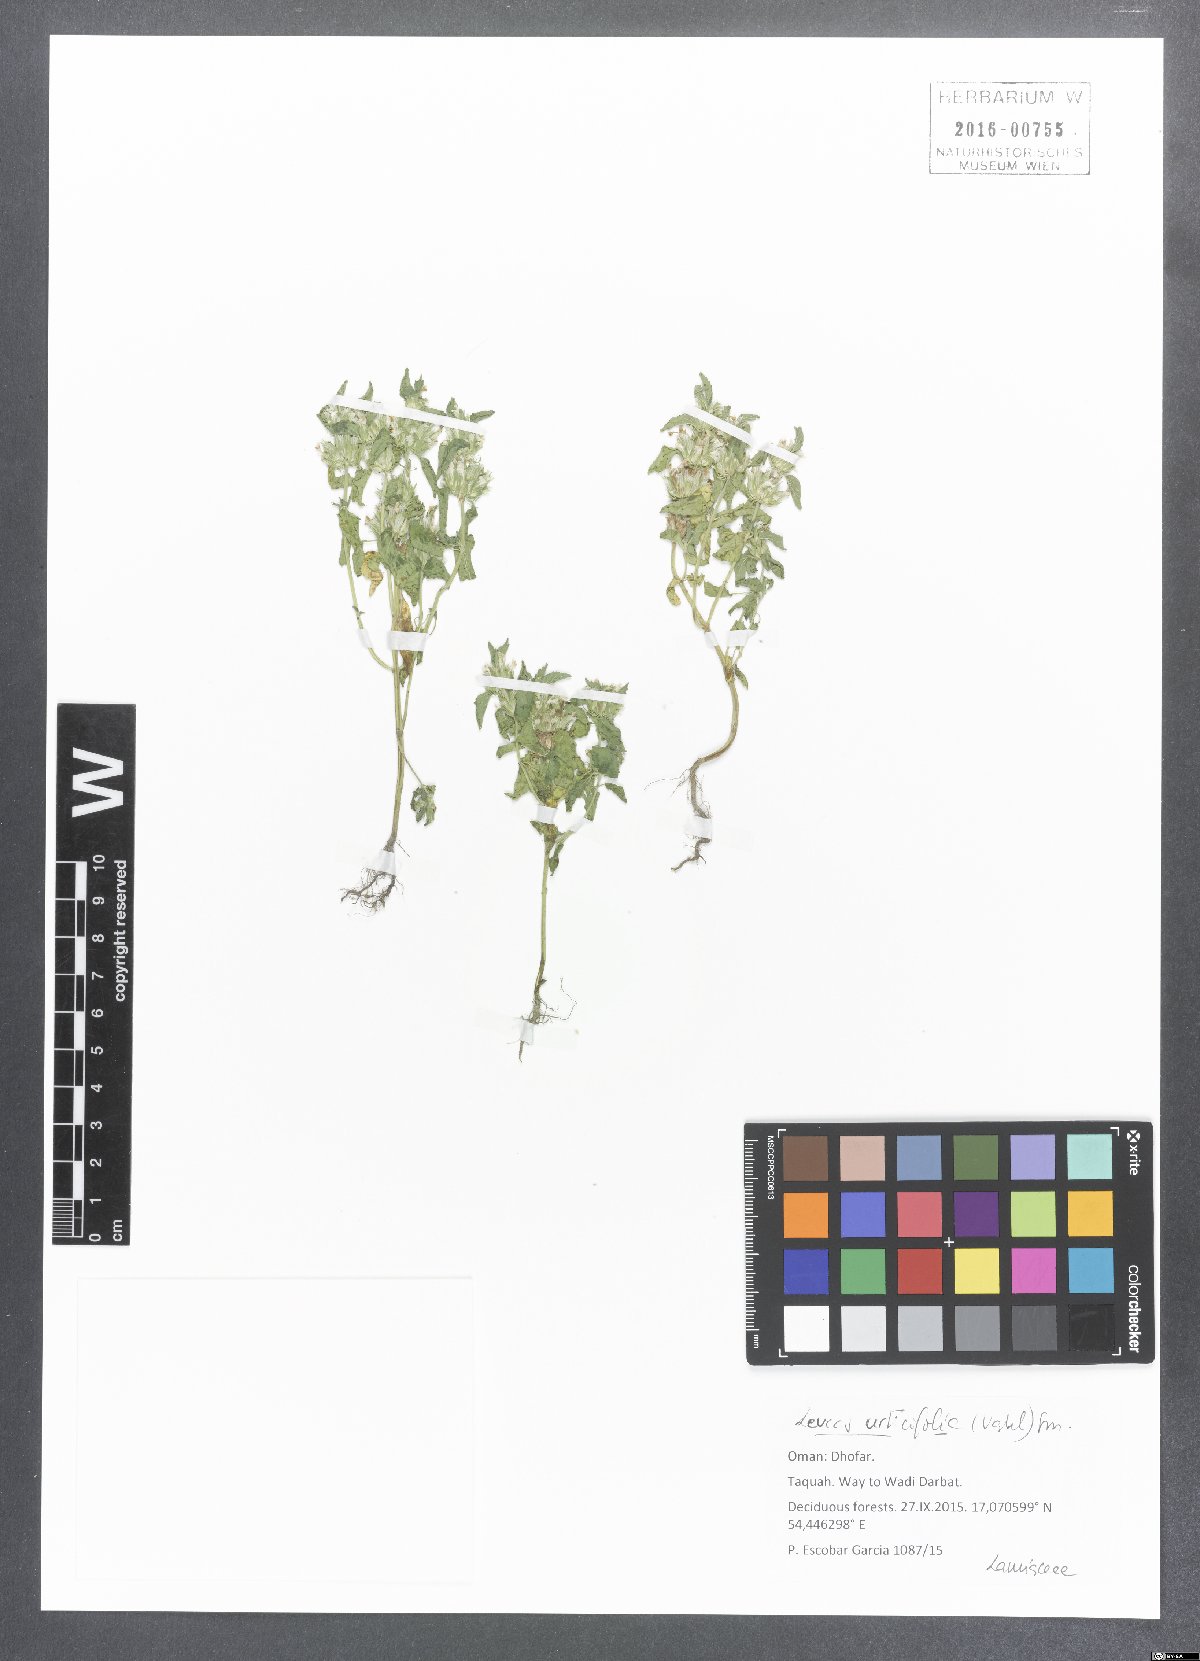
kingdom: Plantae
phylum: Tracheophyta
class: Magnoliopsida
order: Lamiales
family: Lamiaceae
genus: Leucas
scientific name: Leucas urticifolia
